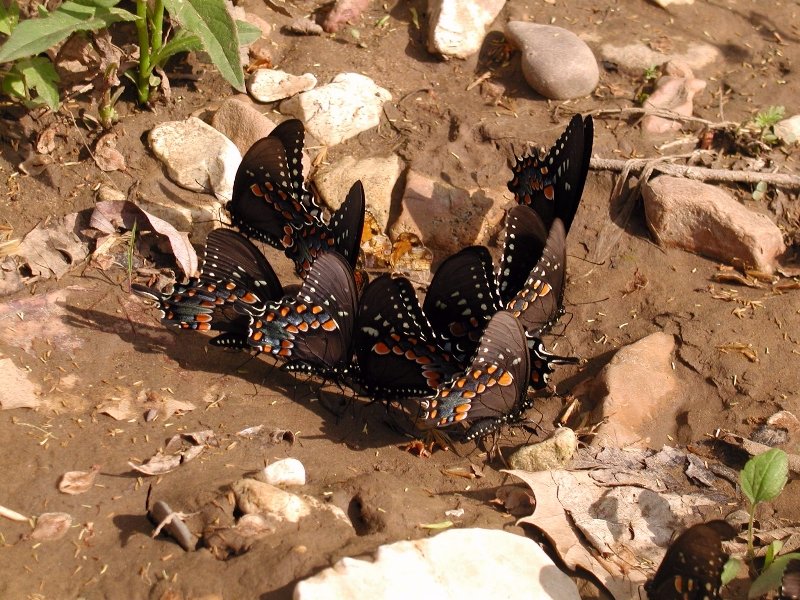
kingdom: Animalia
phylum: Arthropoda
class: Insecta
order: Lepidoptera
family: Papilionidae
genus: Pterourus
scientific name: Pterourus troilus
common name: Spicebush Swallowtail
